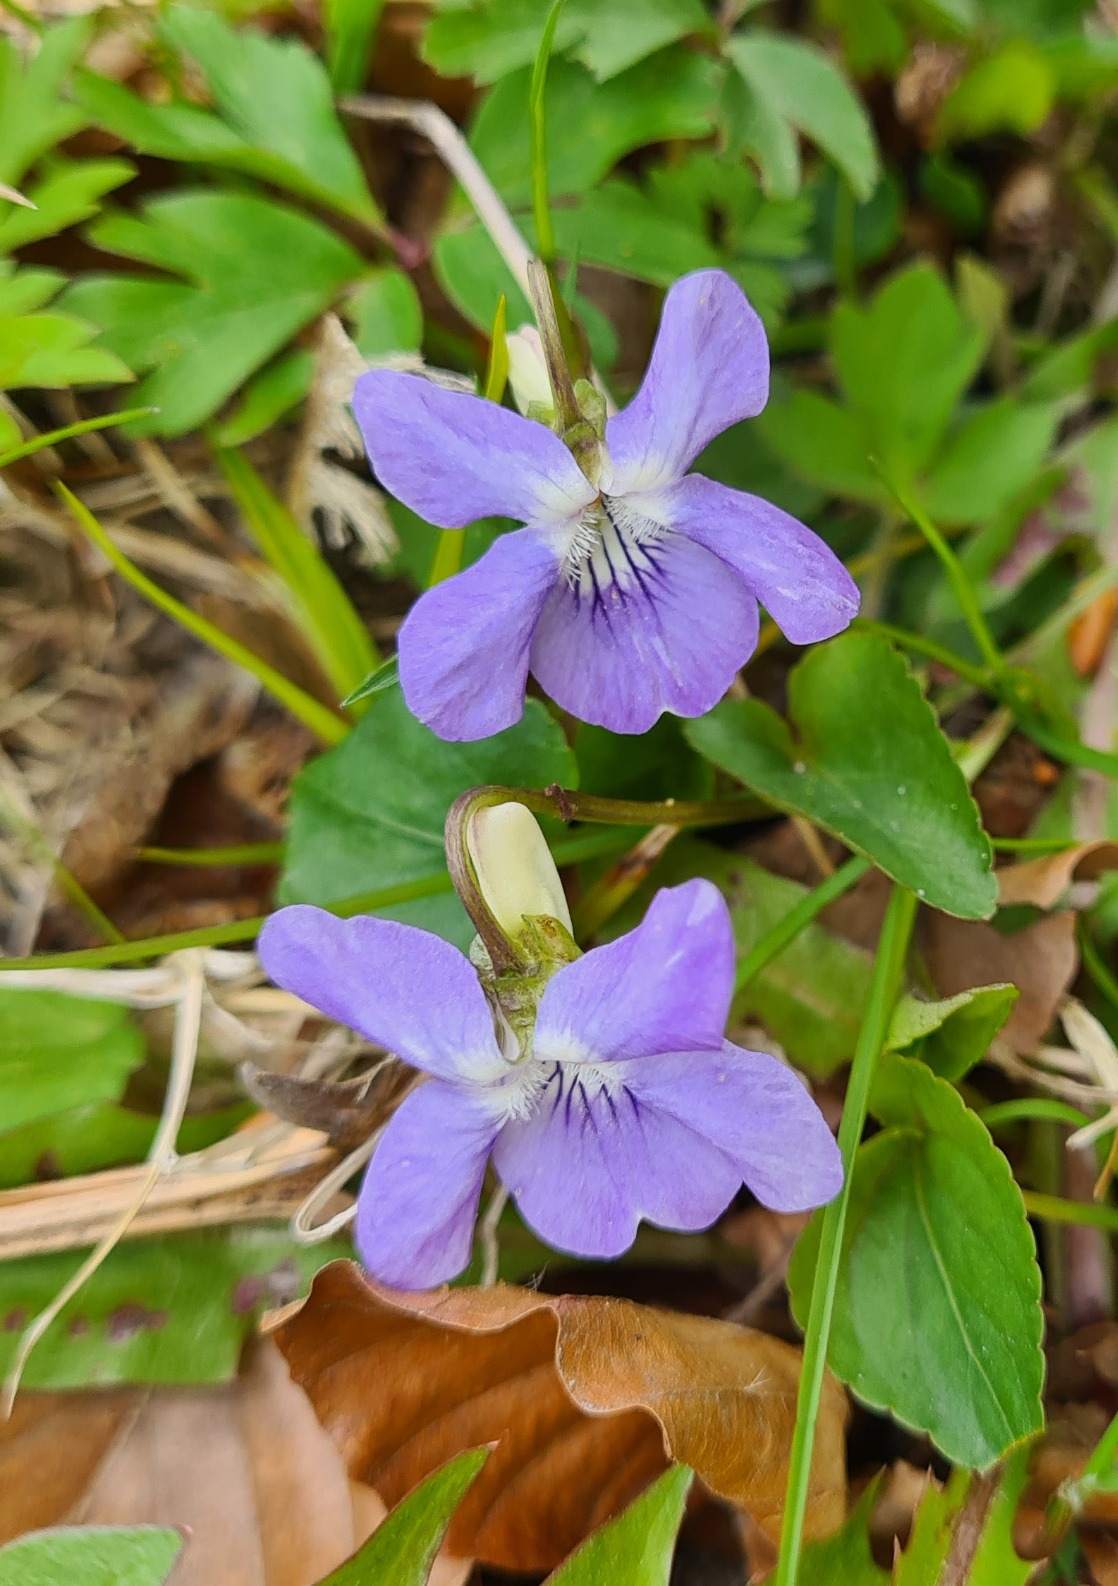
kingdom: Plantae
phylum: Tracheophyta
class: Magnoliopsida
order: Malpighiales
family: Violaceae
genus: Viola
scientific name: Viola riviniana
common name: Krat-viol
